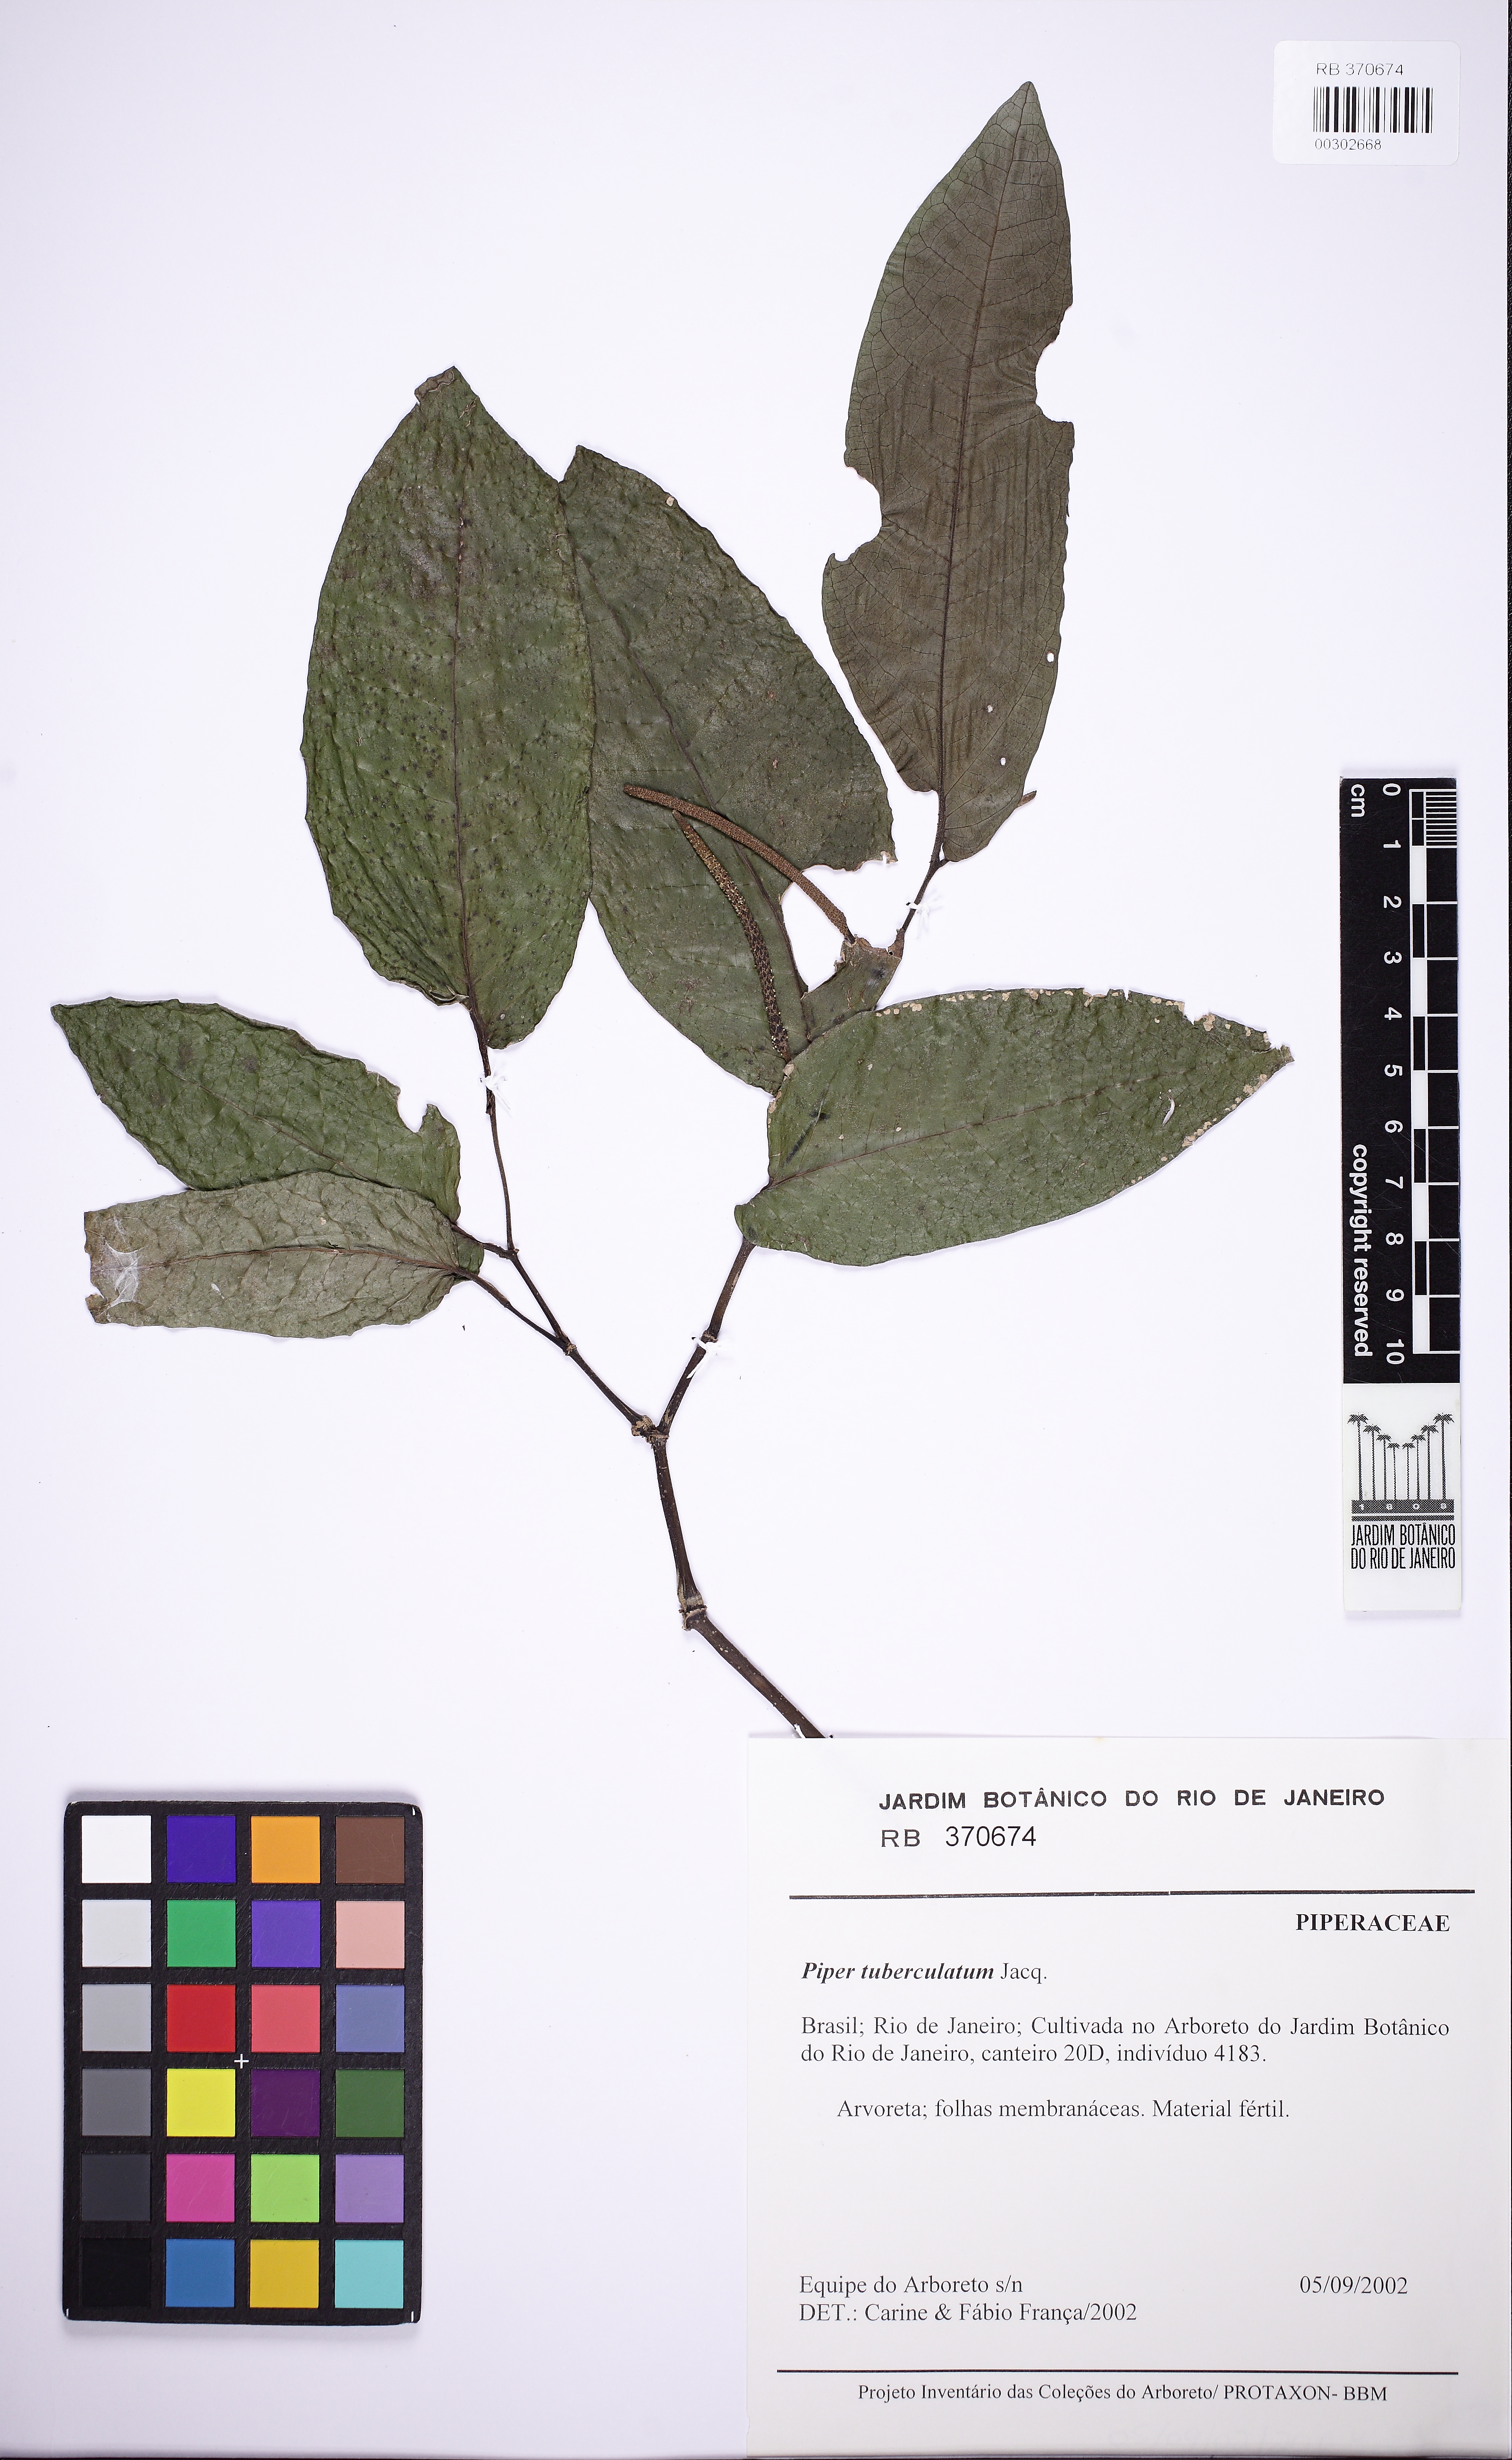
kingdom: Plantae
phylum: Tracheophyta
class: Magnoliopsida
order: Piperales
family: Piperaceae
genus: Piper
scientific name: Piper tuberculatum
